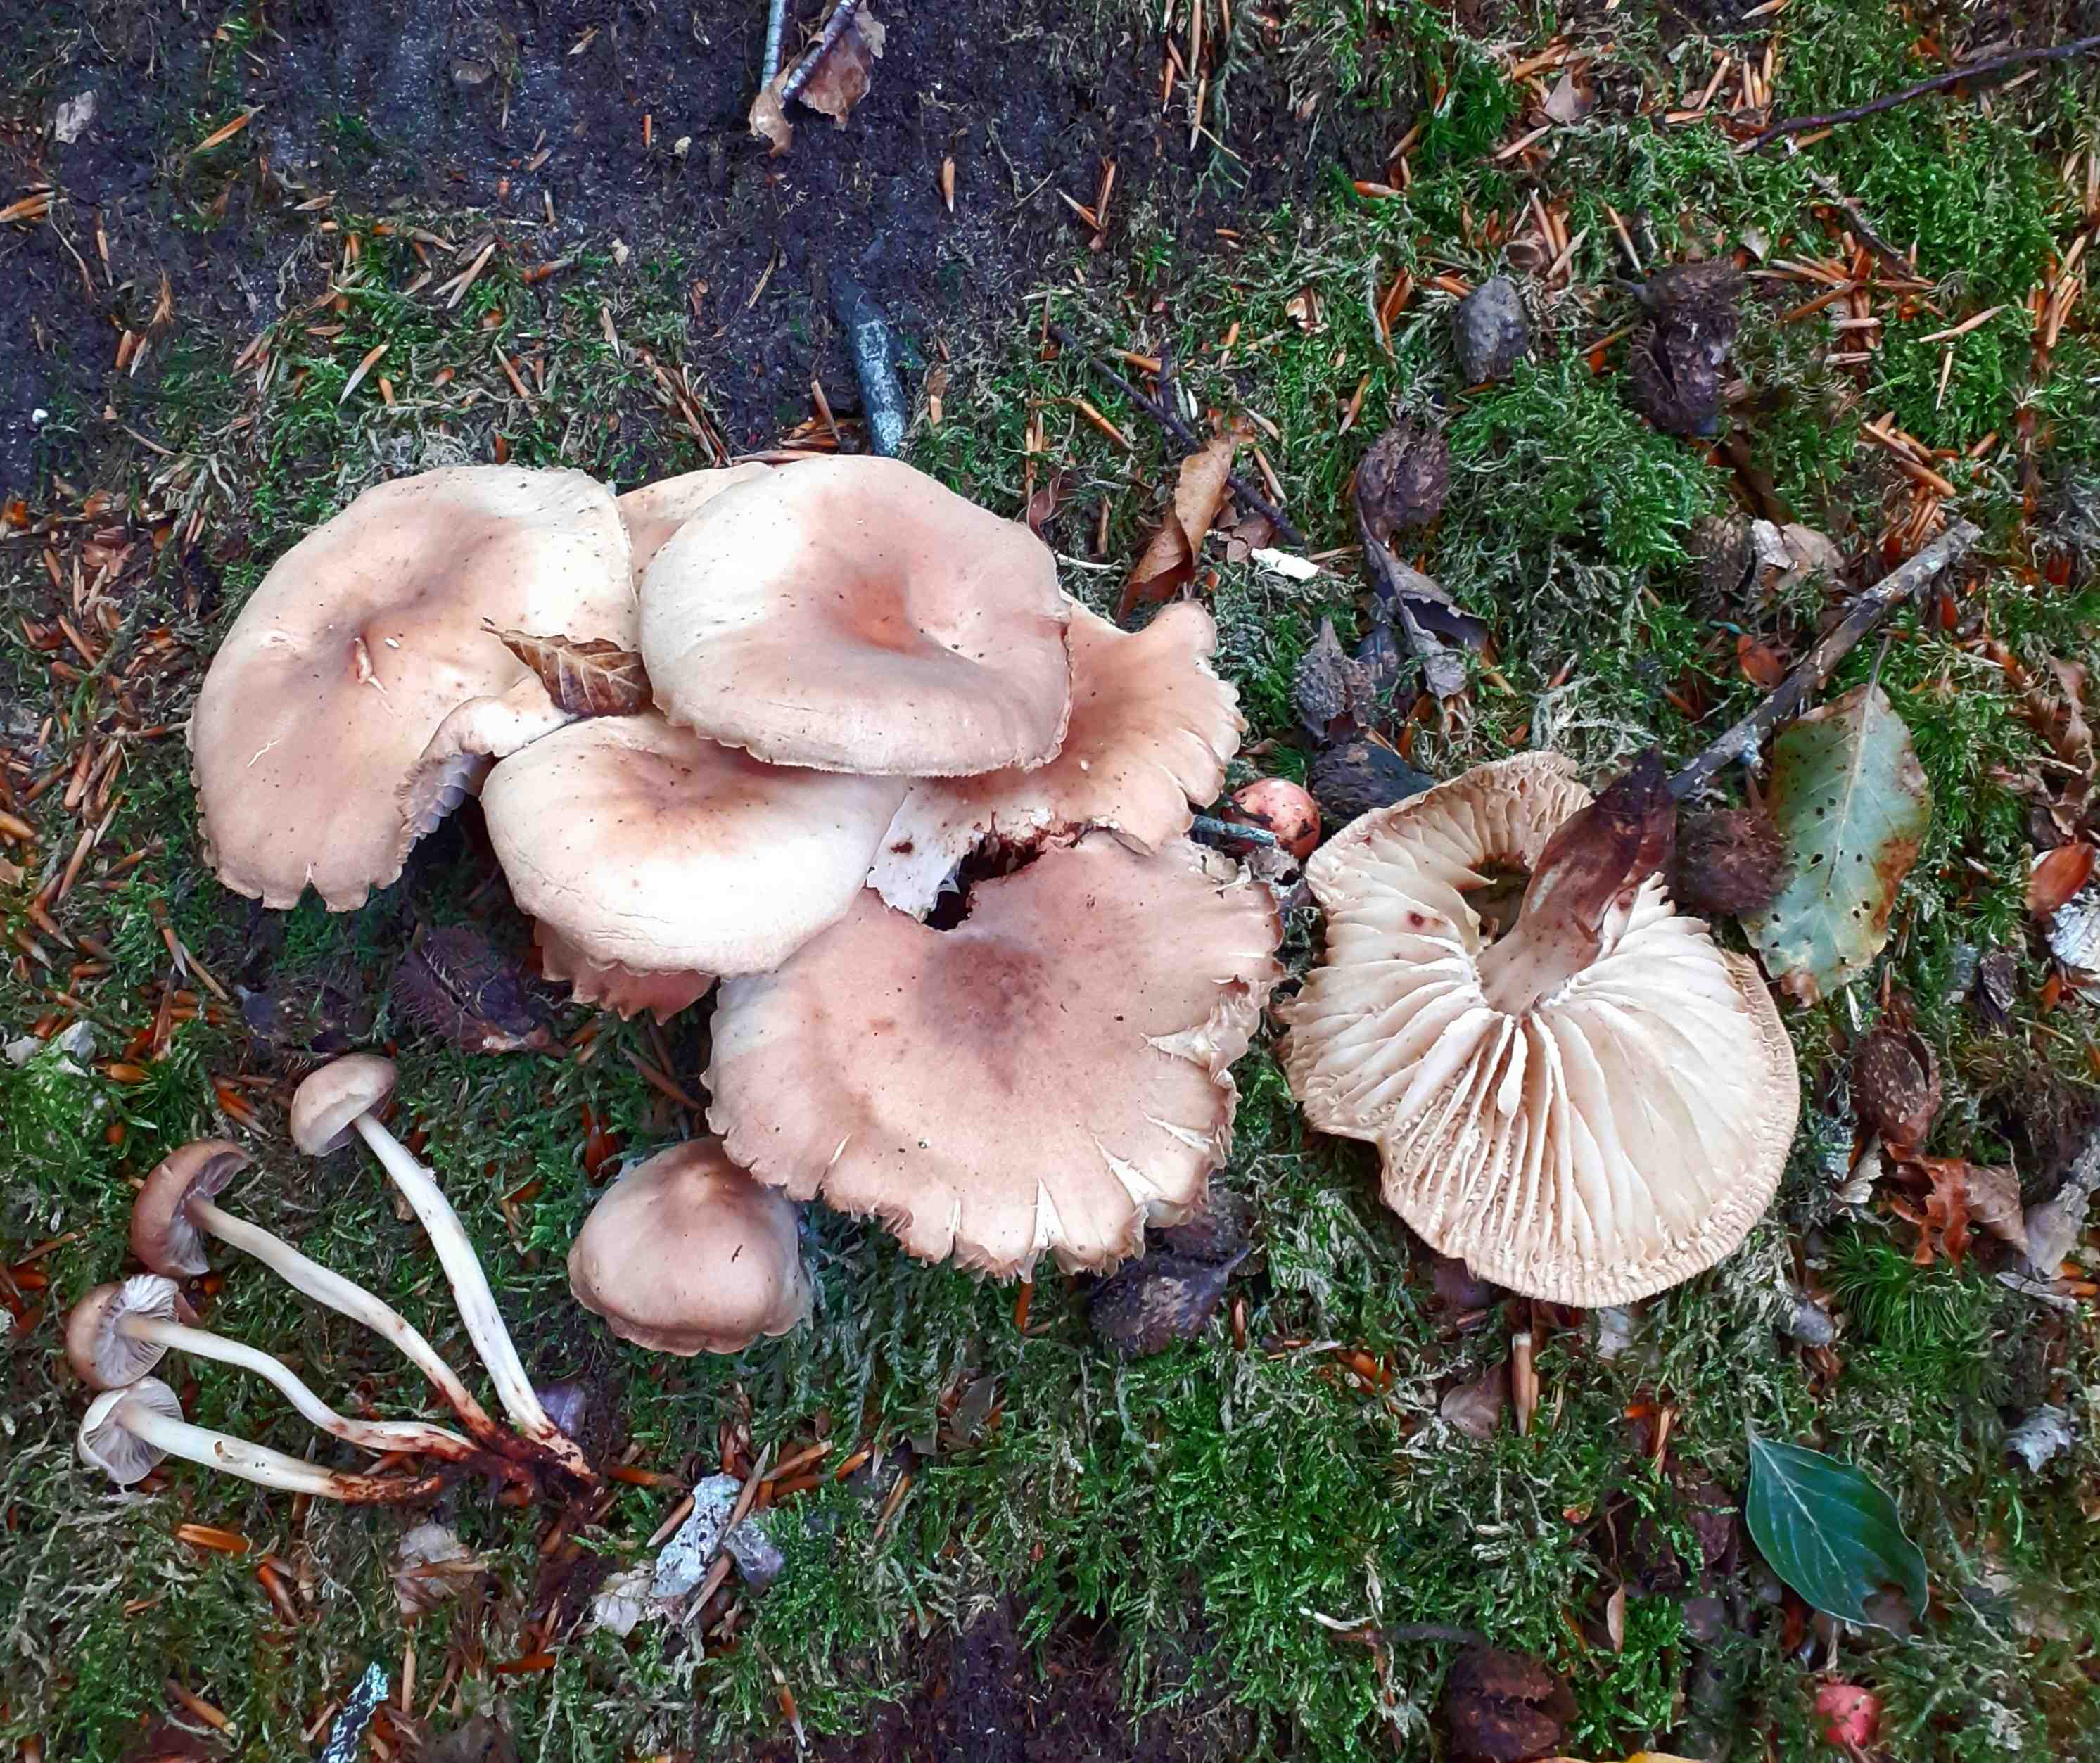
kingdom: Fungi
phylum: Basidiomycota
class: Agaricomycetes
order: Agaricales
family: Omphalotaceae
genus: Gymnopus
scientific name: Gymnopus fusipes
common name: tenstokket fladhat
